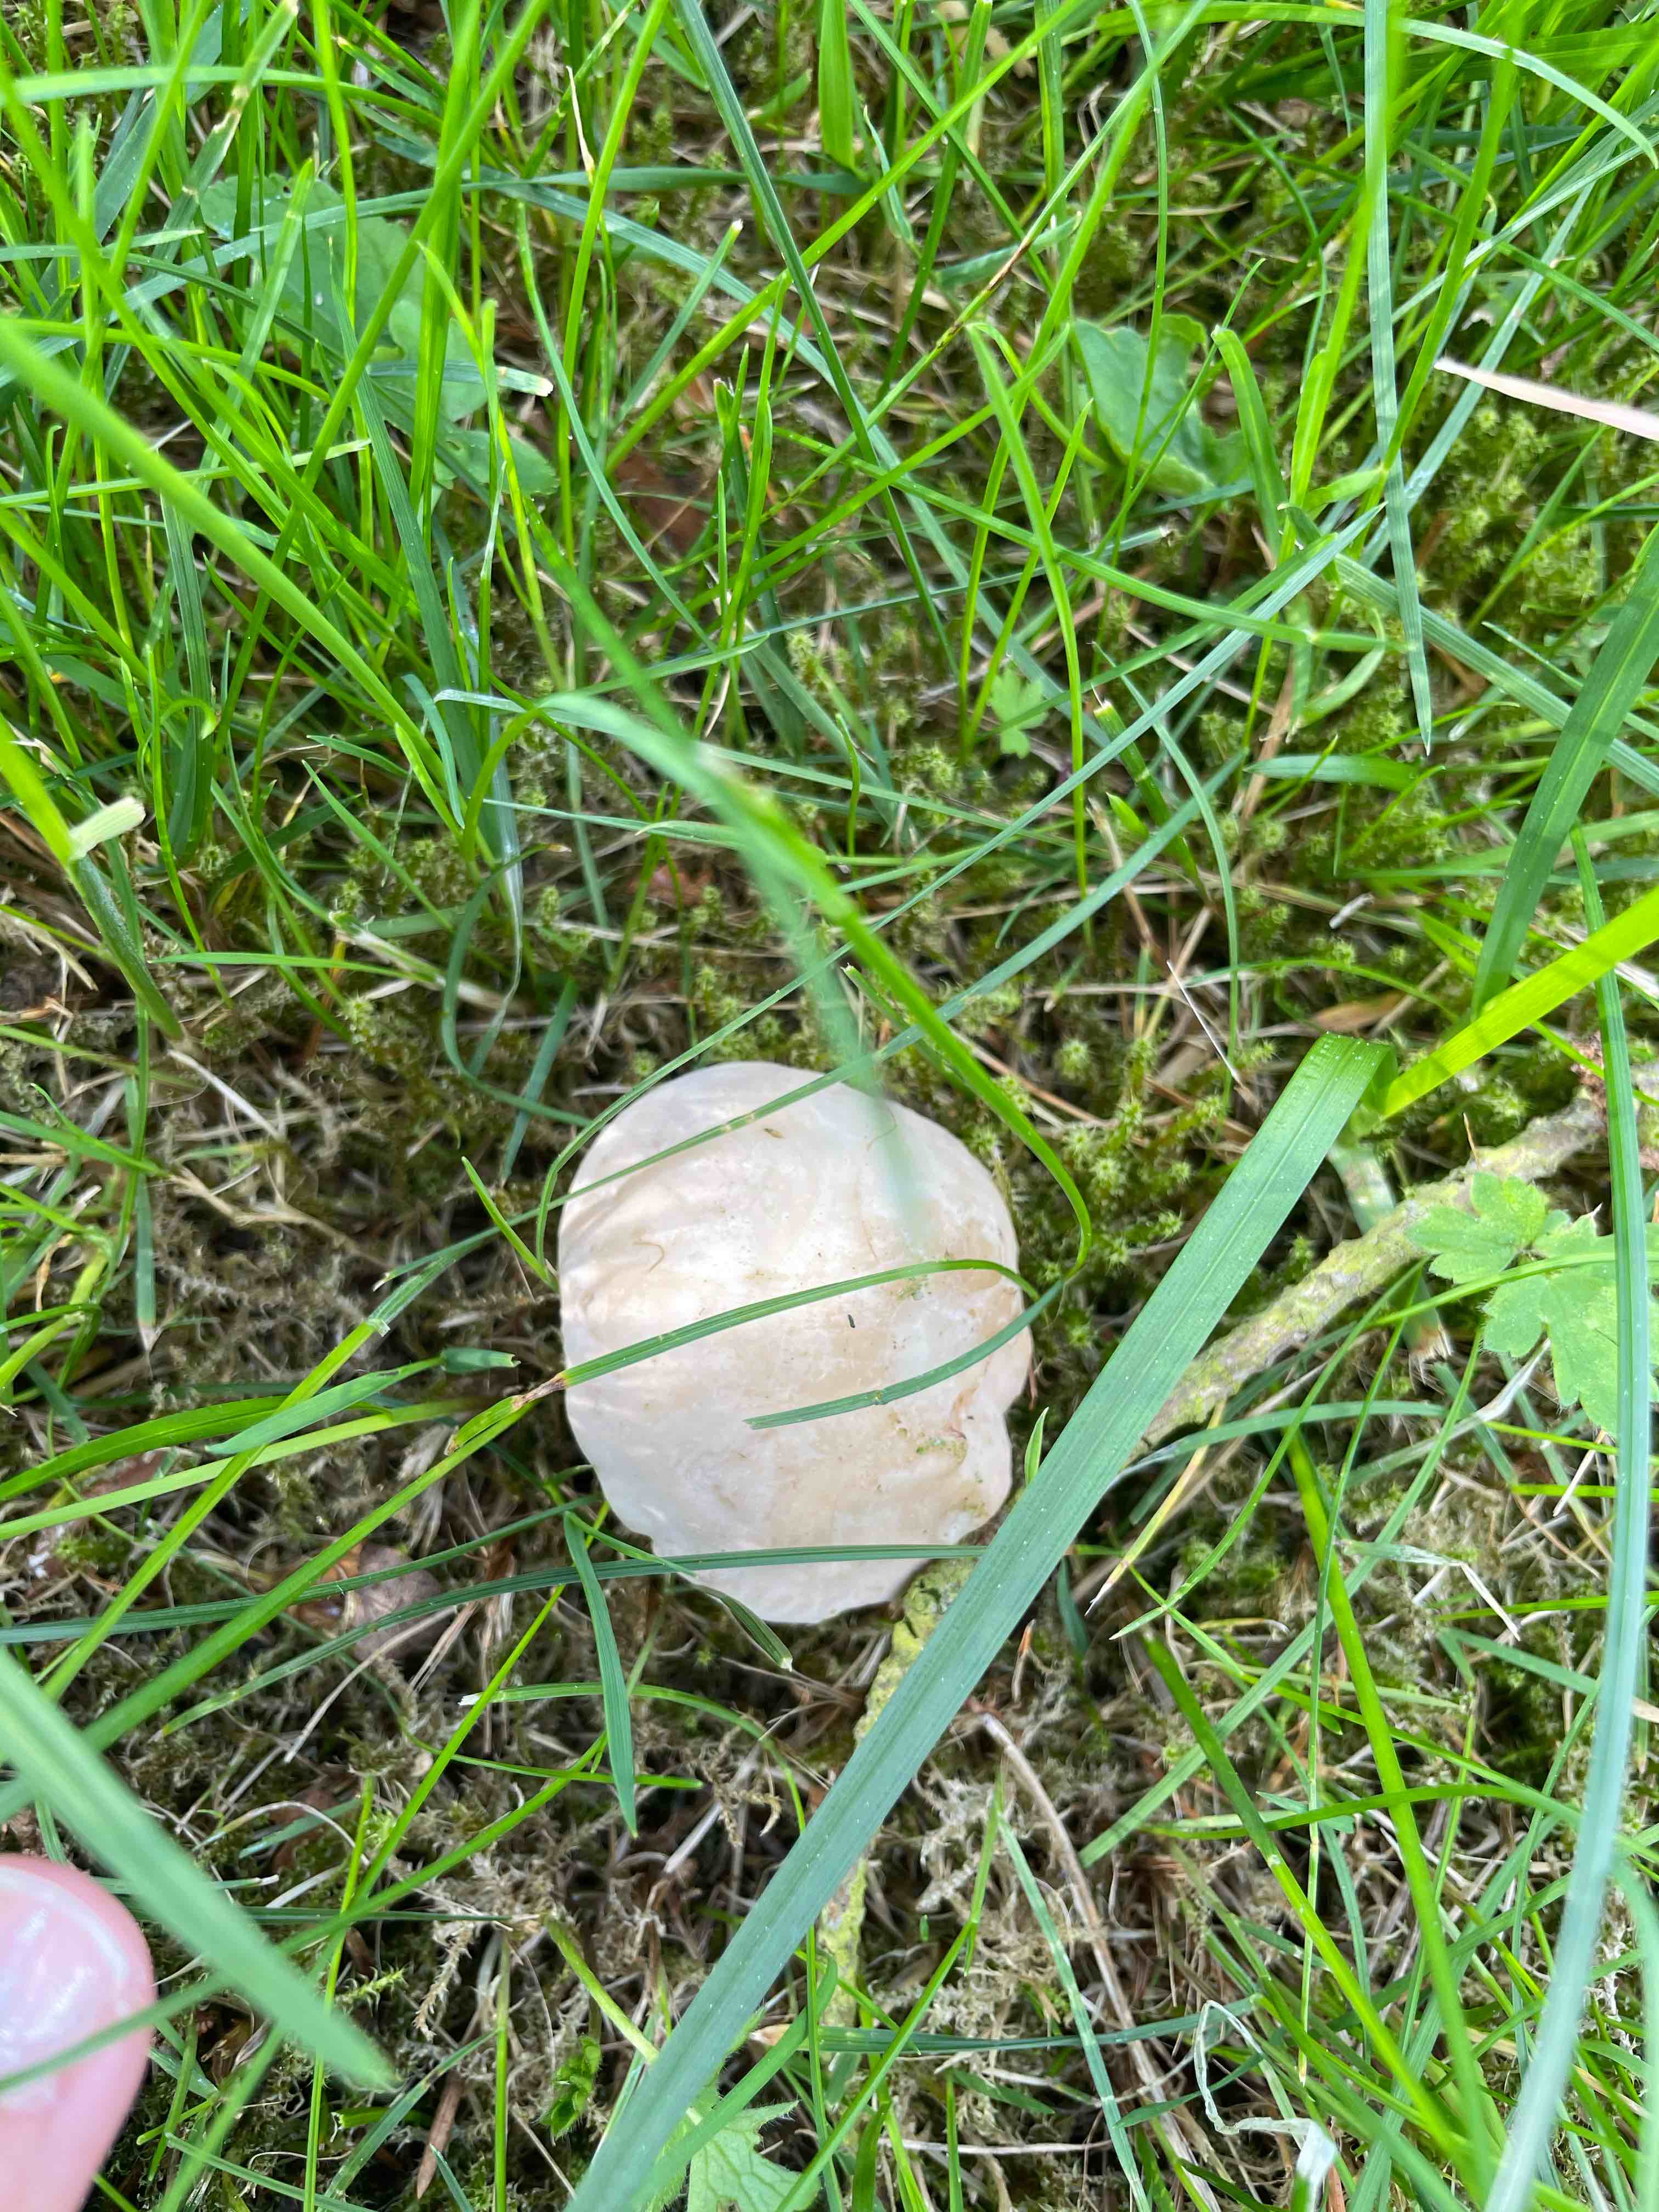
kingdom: Fungi
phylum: Basidiomycota
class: Agaricomycetes
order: Agaricales
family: Lyophyllaceae
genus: Calocybe
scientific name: Calocybe gambosa
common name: vårmusseron
